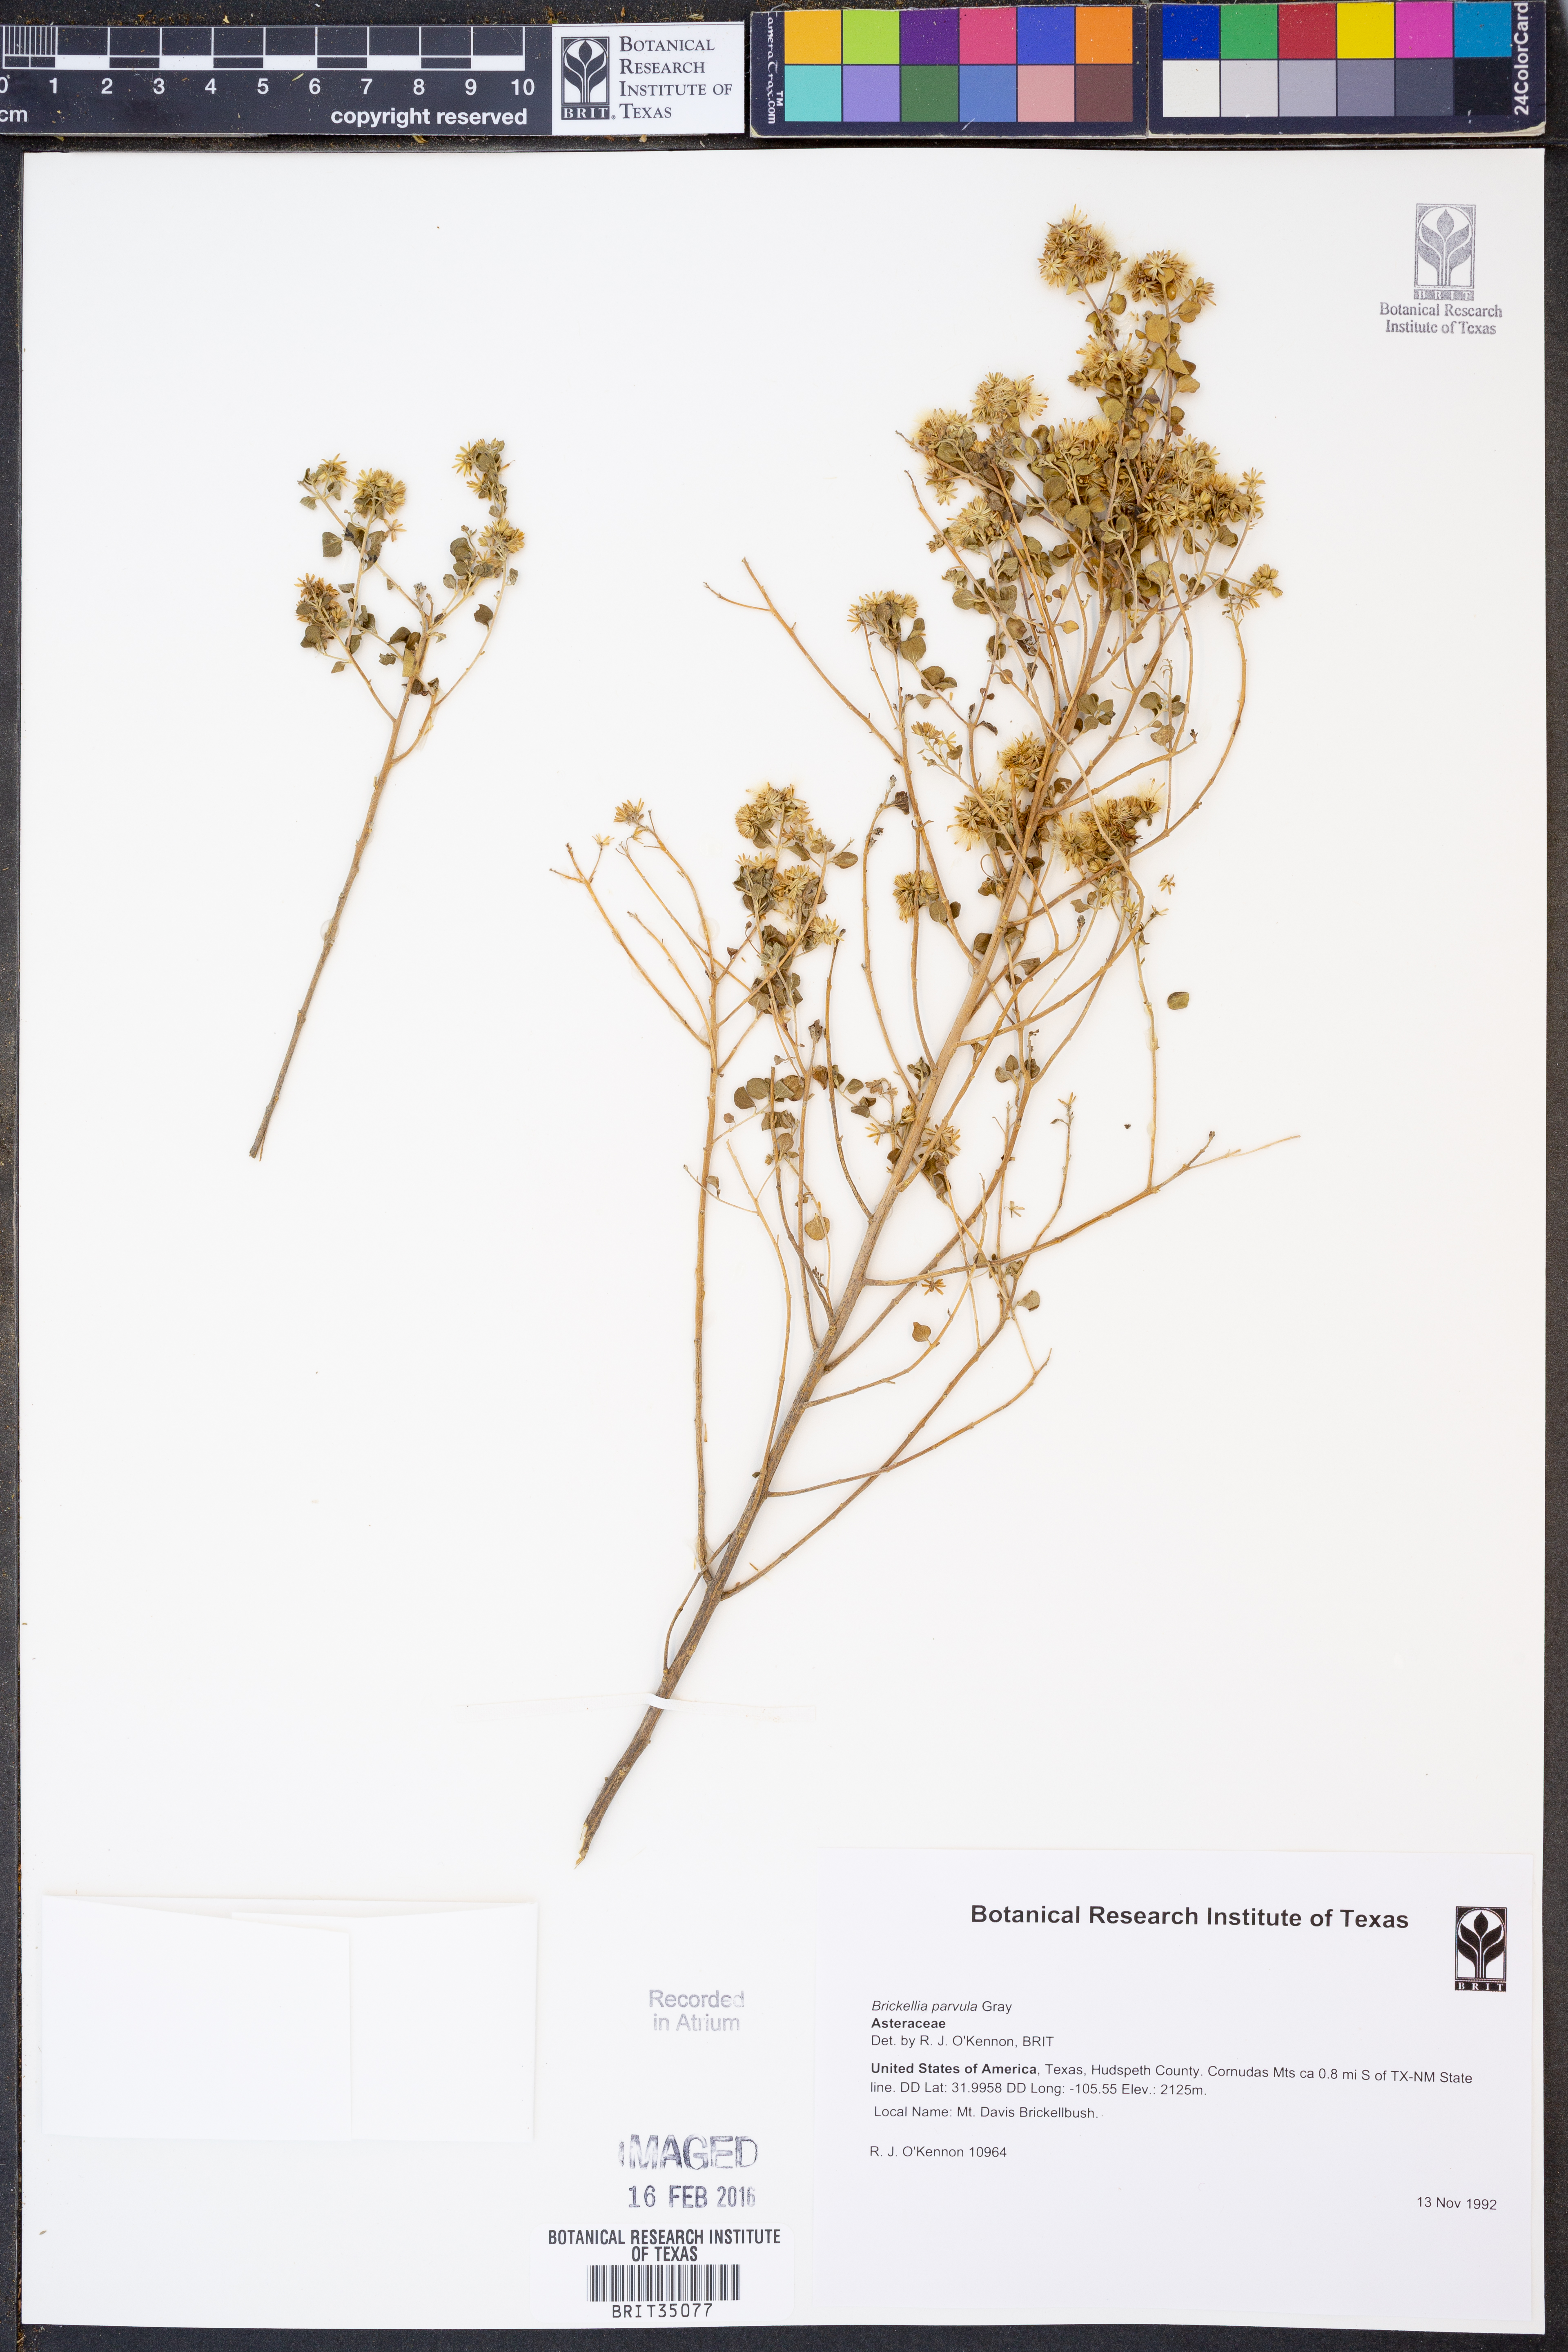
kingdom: Plantae
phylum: Tracheophyta
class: Magnoliopsida
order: Asterales
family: Asteraceae
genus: Brickellia
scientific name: Brickellia parvula
